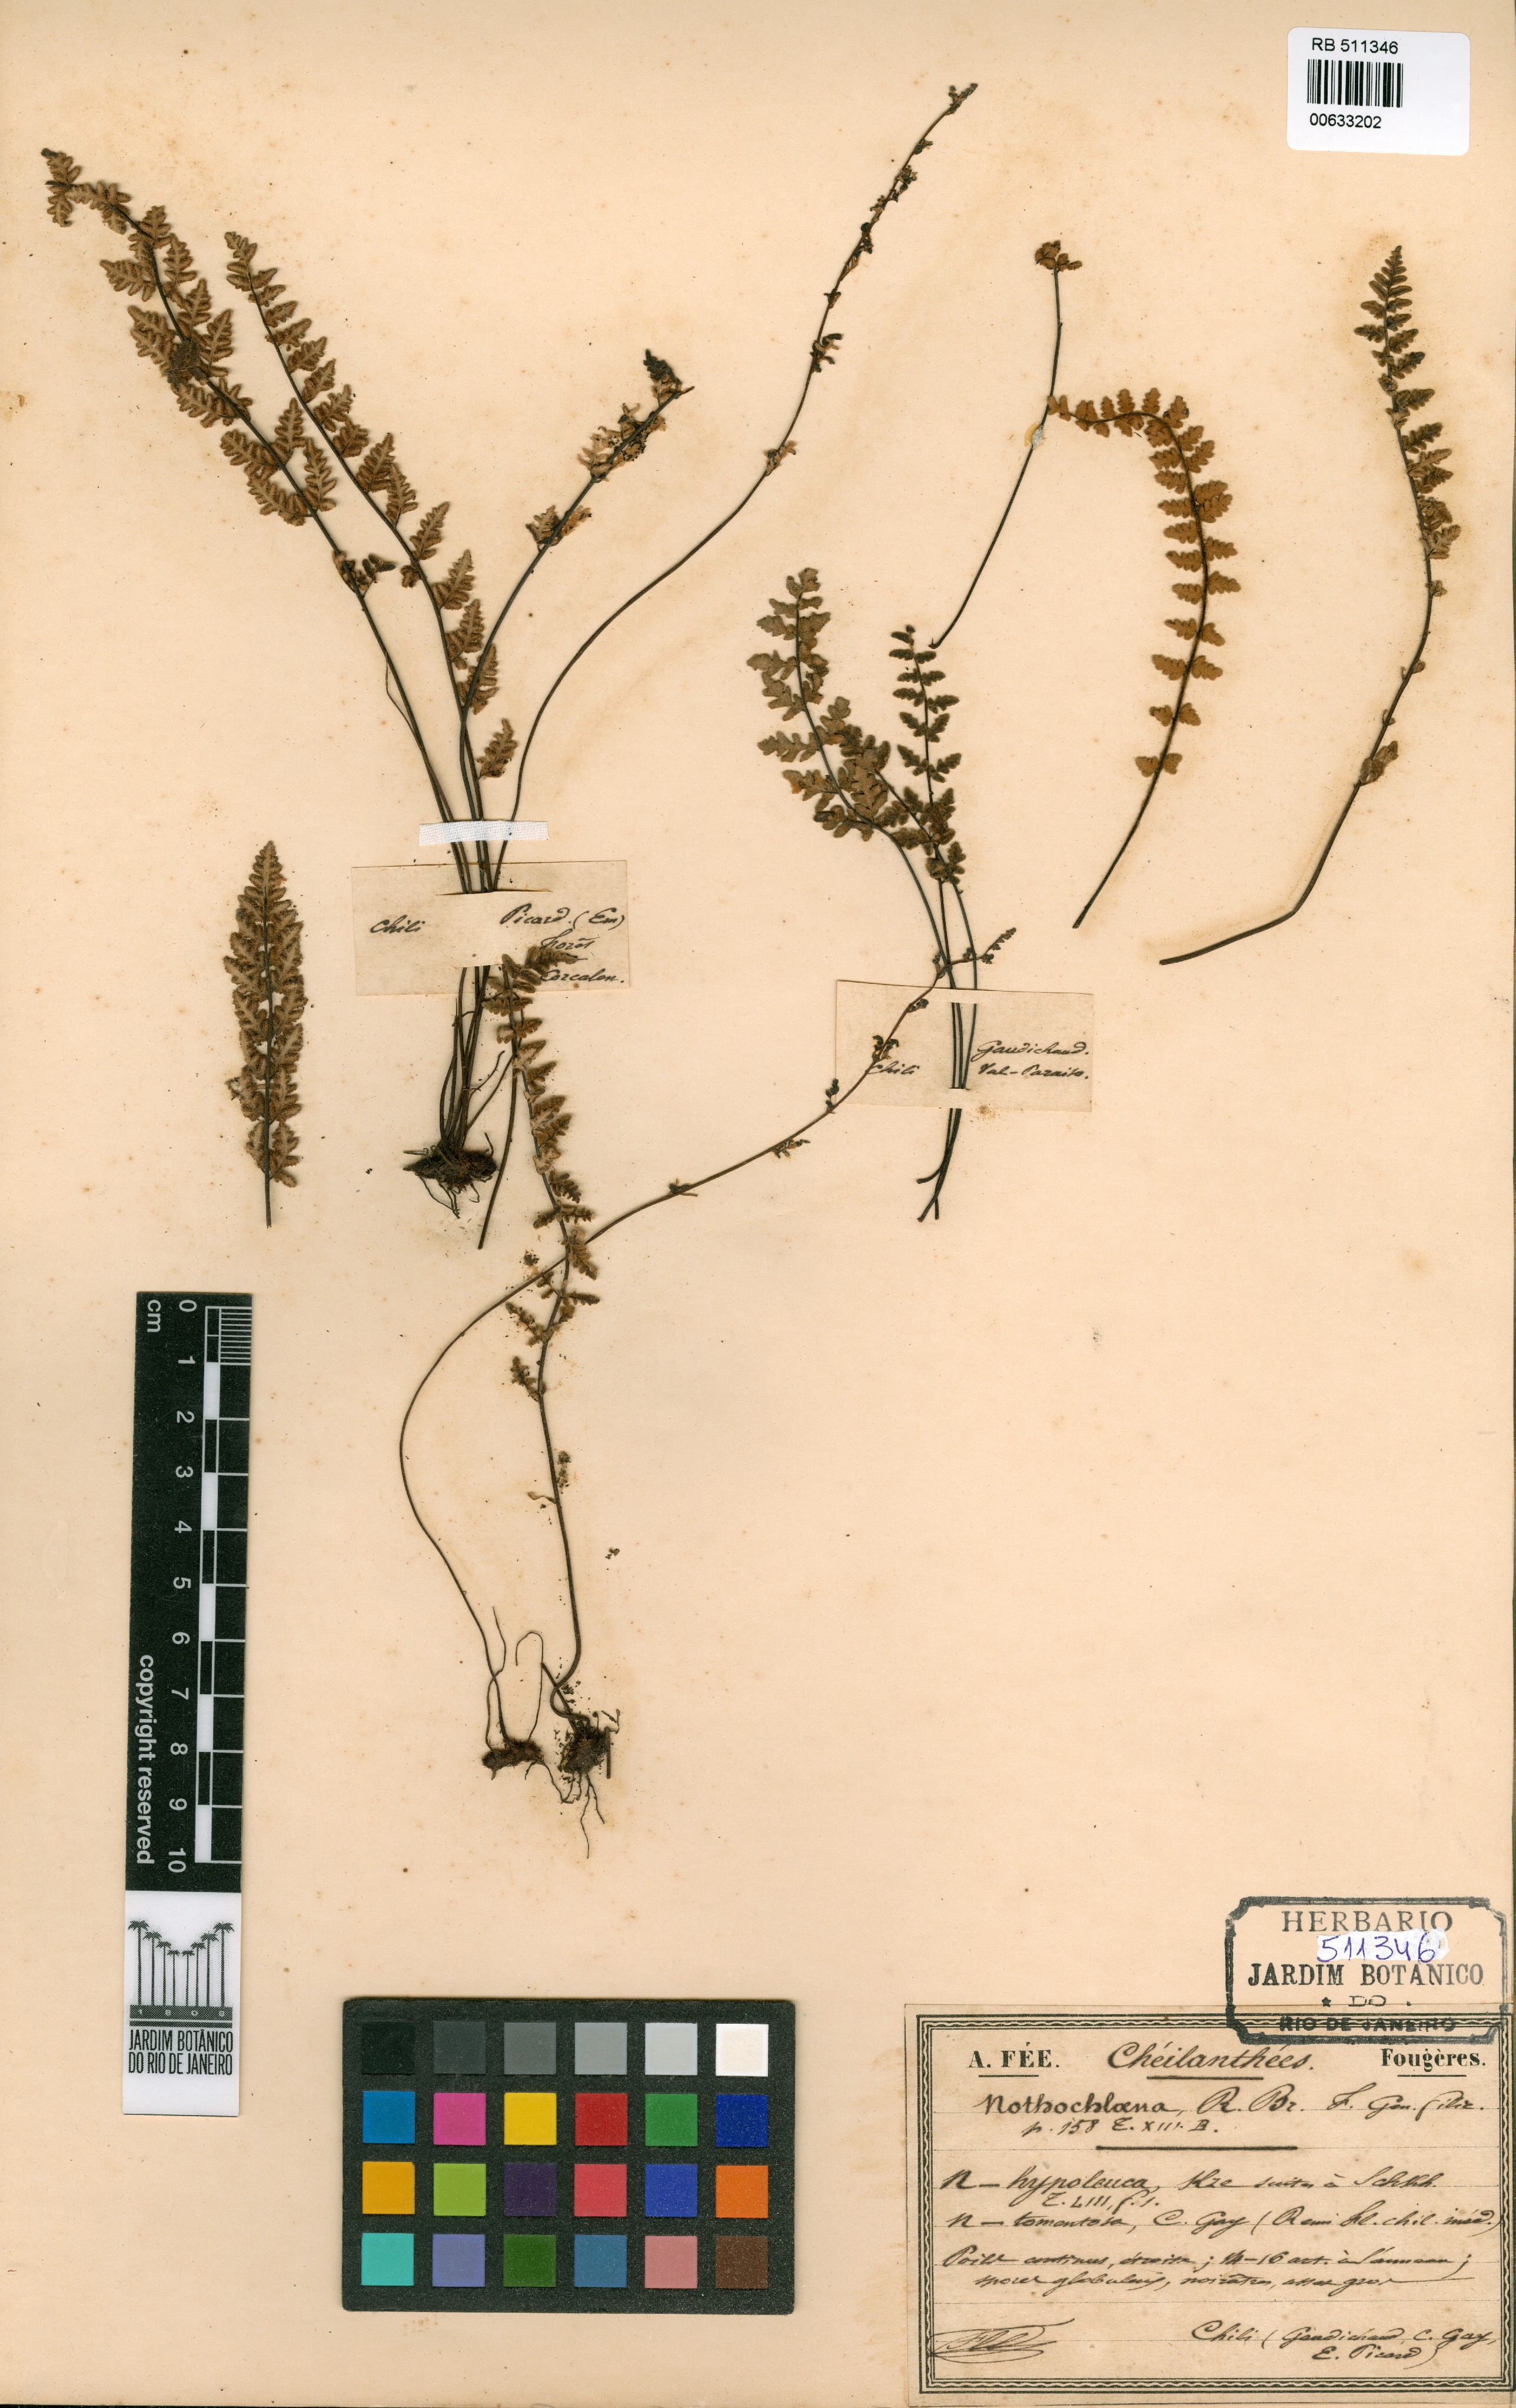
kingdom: Plantae
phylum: Tracheophyta
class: Polypodiopsida
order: Polypodiales
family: Pteridaceae
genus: Cheilanthes
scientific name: Cheilanthes hypoleuca
